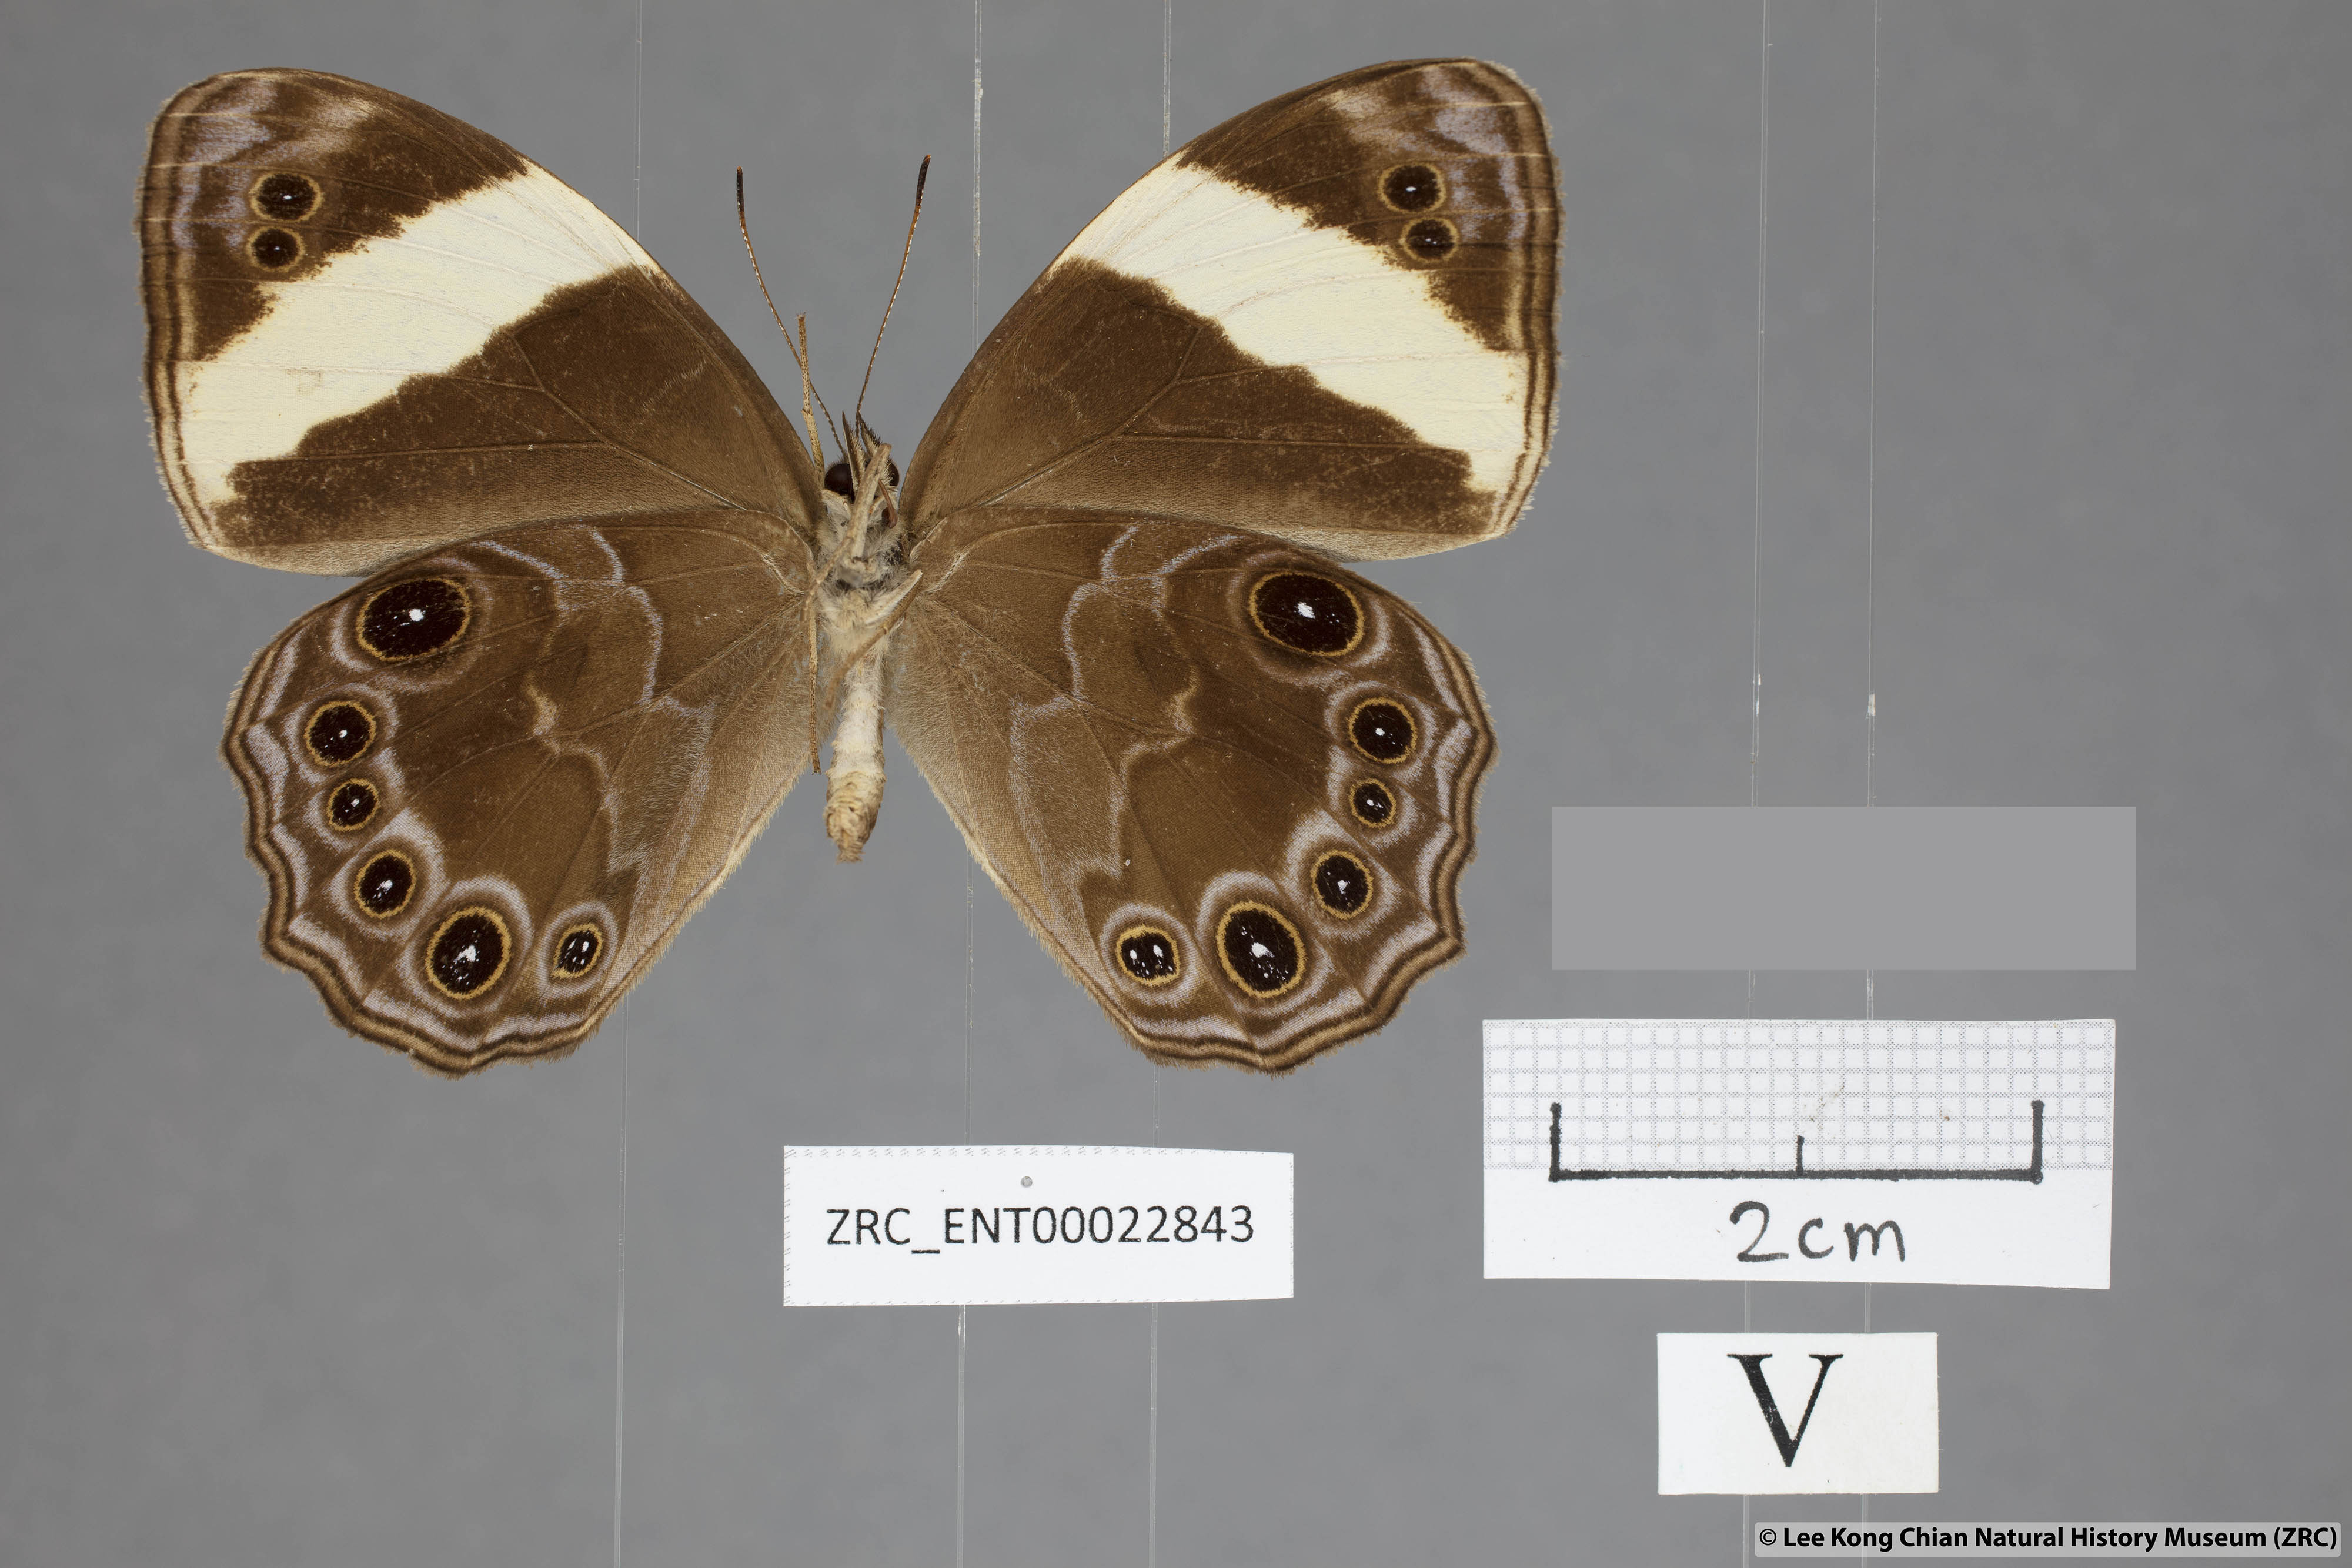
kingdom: Animalia
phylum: Arthropoda
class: Insecta
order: Lepidoptera
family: Nymphalidae
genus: Lethe
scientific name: Lethe verma
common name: Straight-banded treebrown
